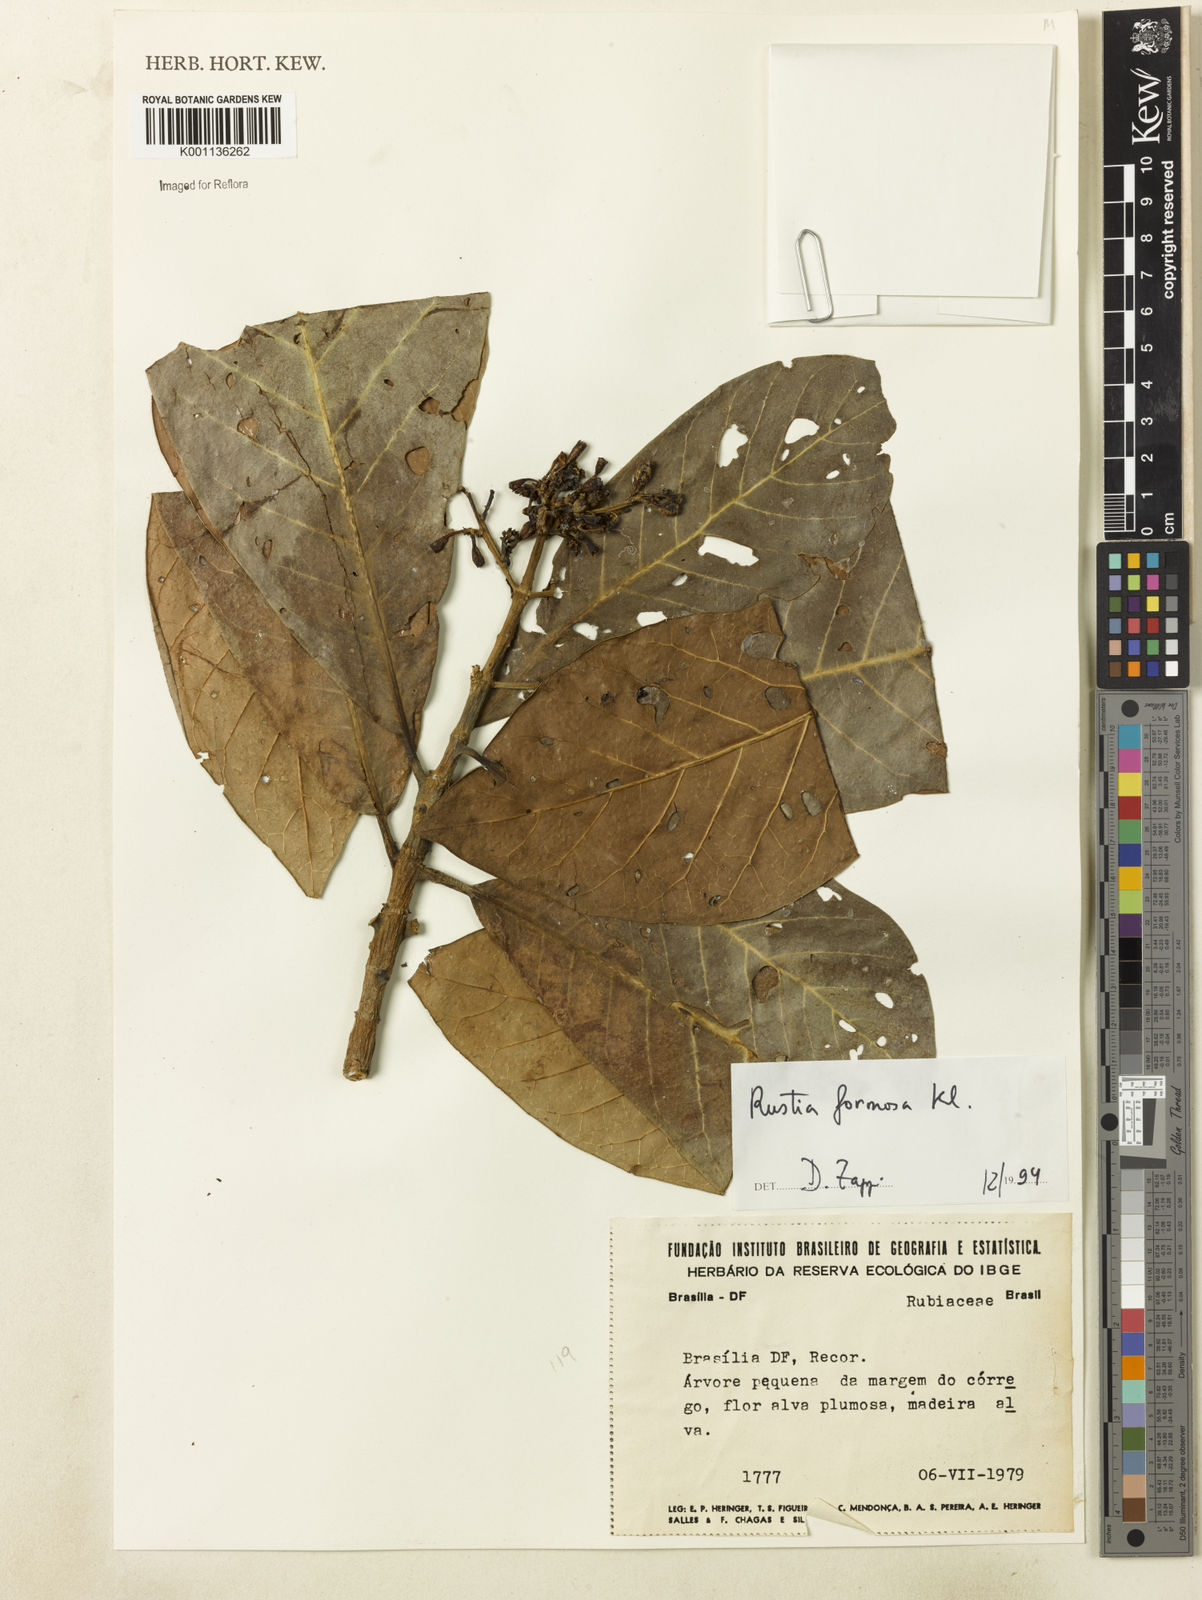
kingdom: Plantae
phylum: Tracheophyta
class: Magnoliopsida
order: Gentianales
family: Rubiaceae
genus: Rustia
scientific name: Rustia formosa
